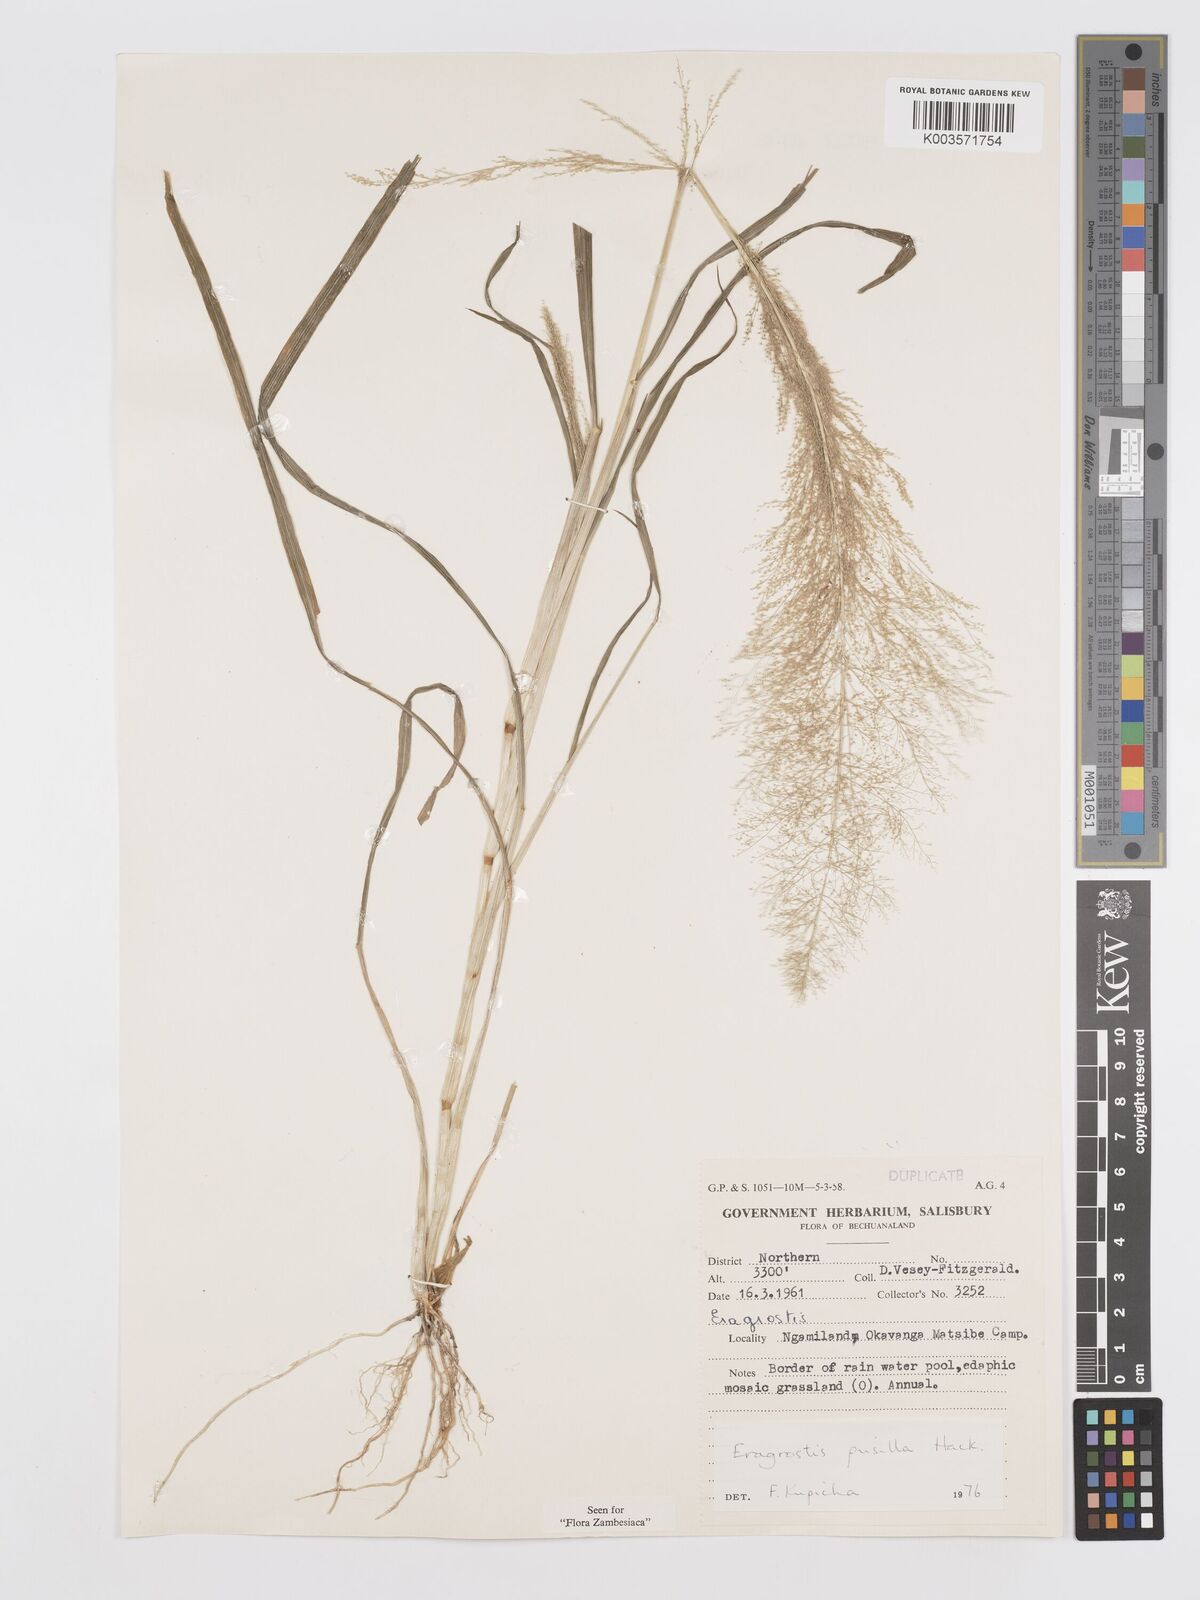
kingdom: Plantae
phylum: Tracheophyta
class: Liliopsida
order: Poales
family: Poaceae
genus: Eragrostis
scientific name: Eragrostis pusilla
